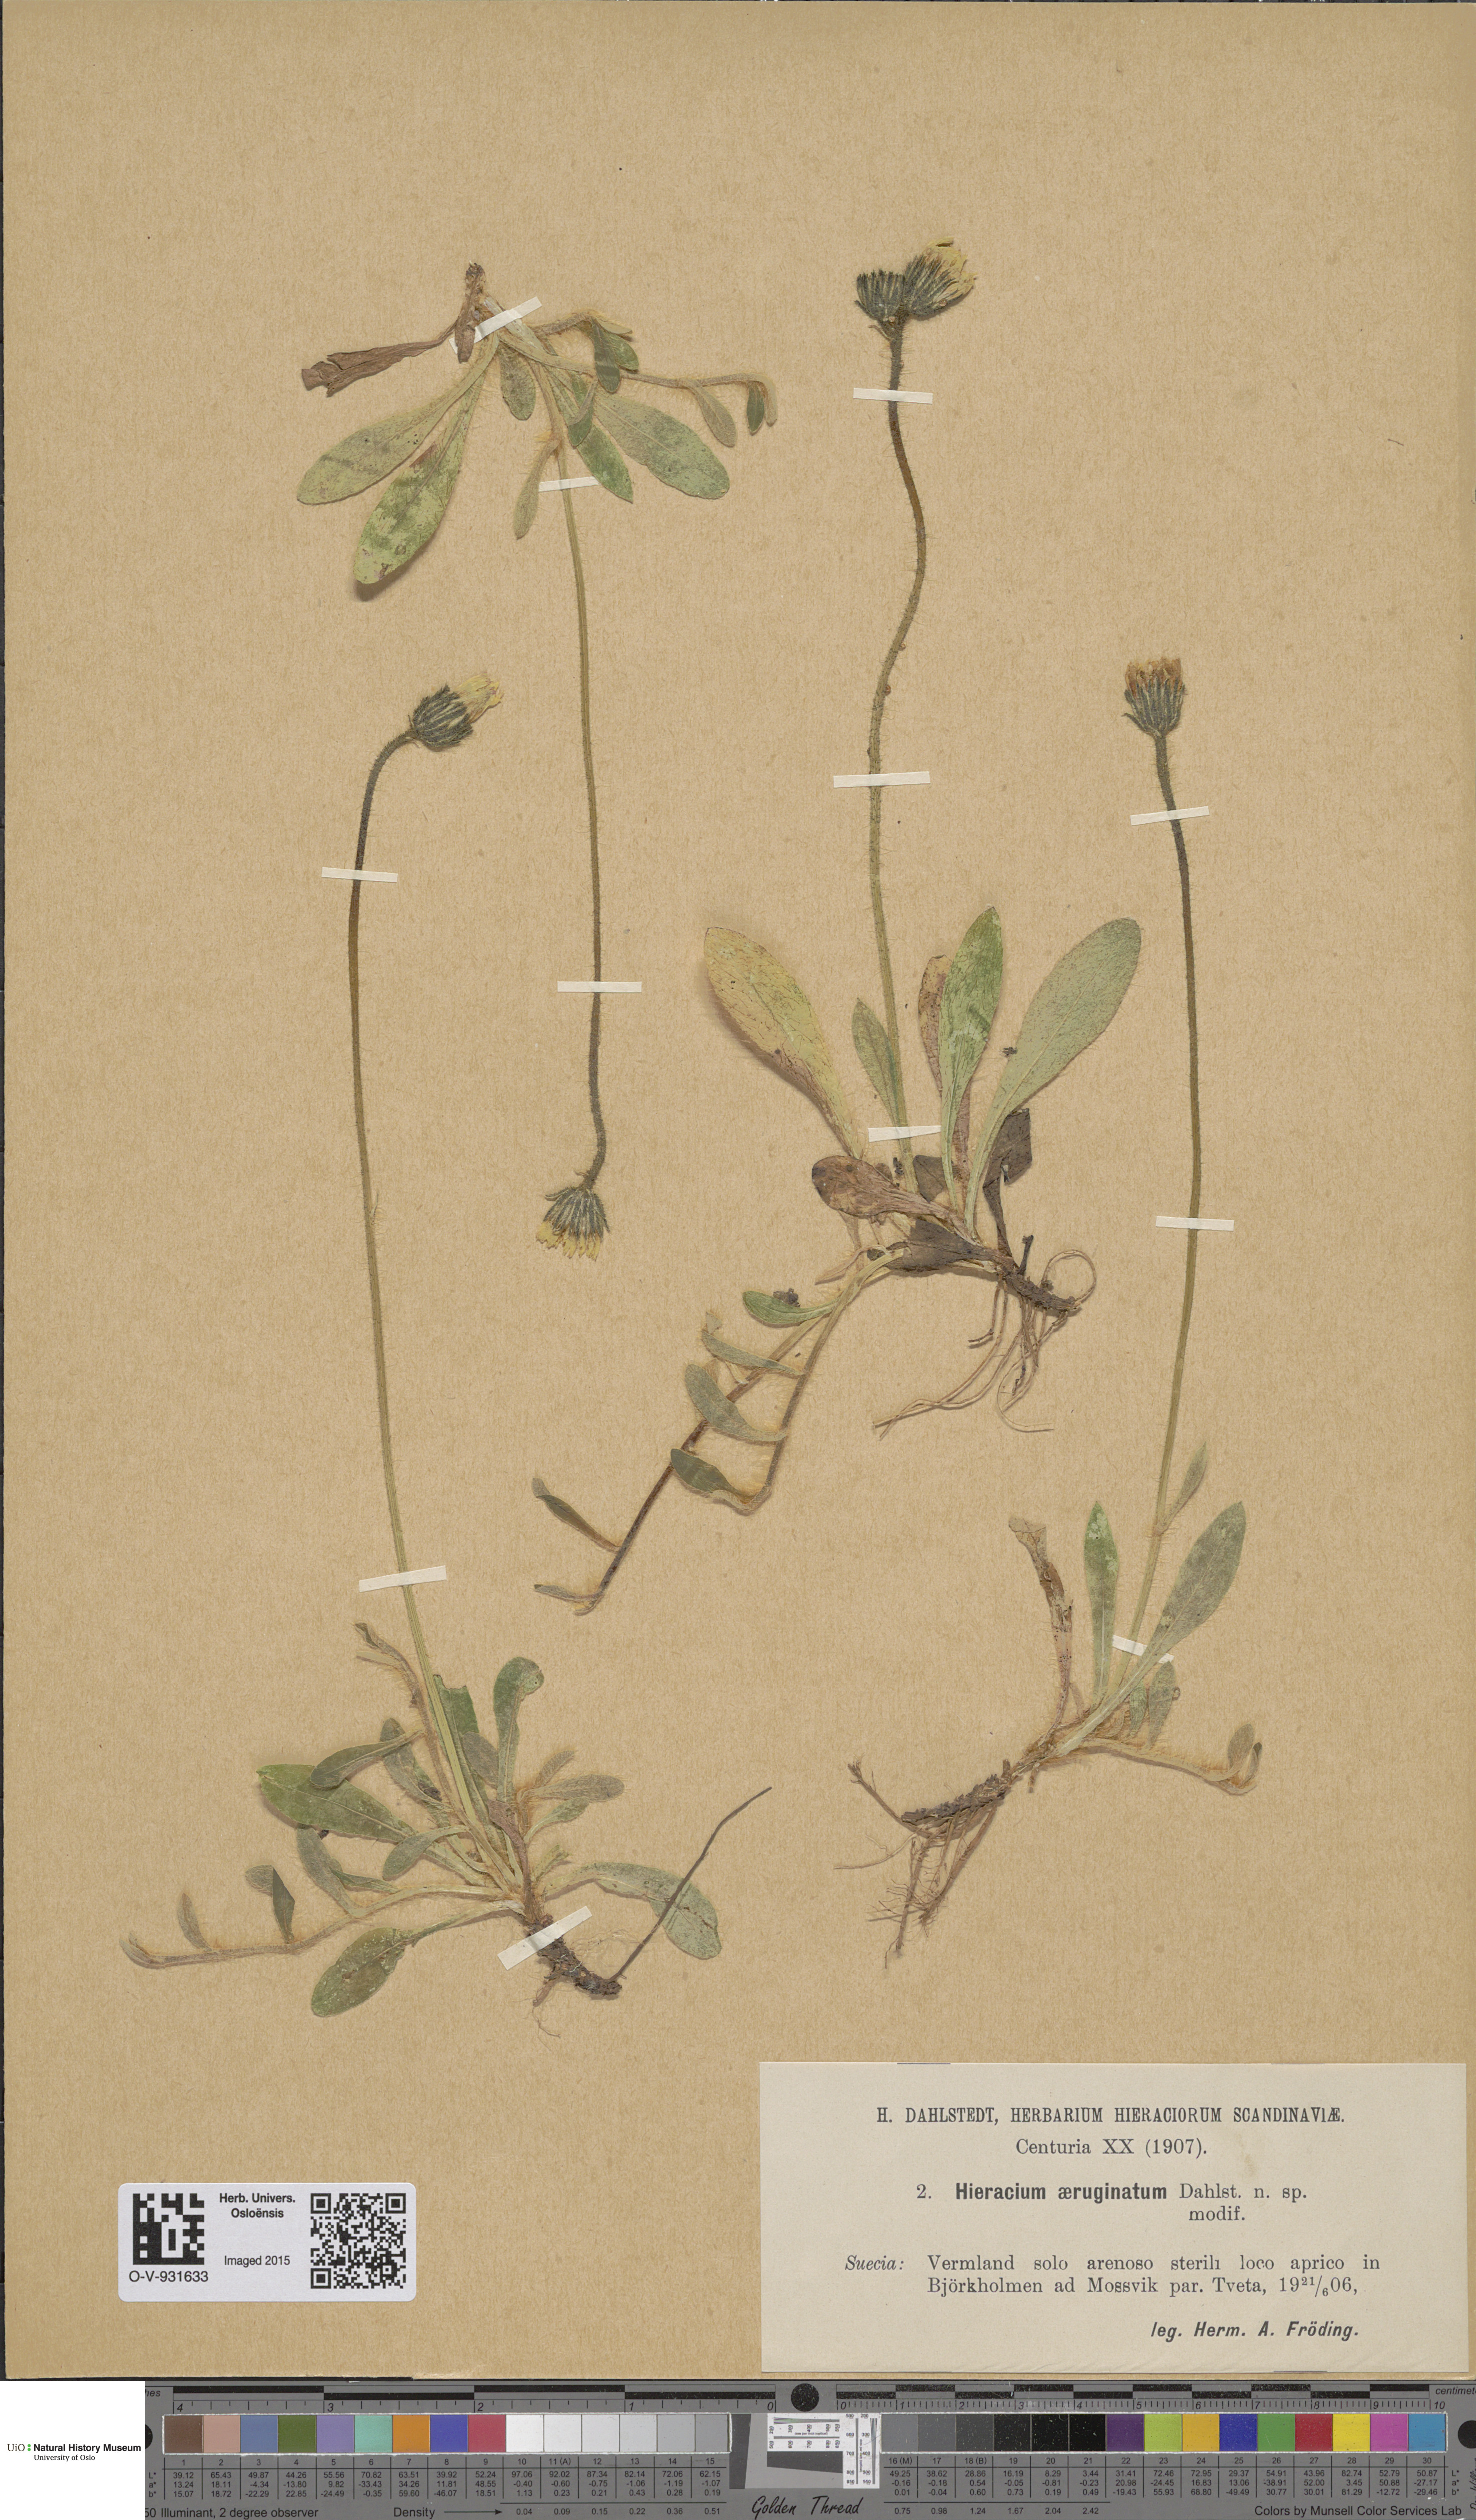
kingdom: Plantae
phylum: Tracheophyta
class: Magnoliopsida
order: Asterales
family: Asteraceae
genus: Hieracium
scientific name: Hieracium
